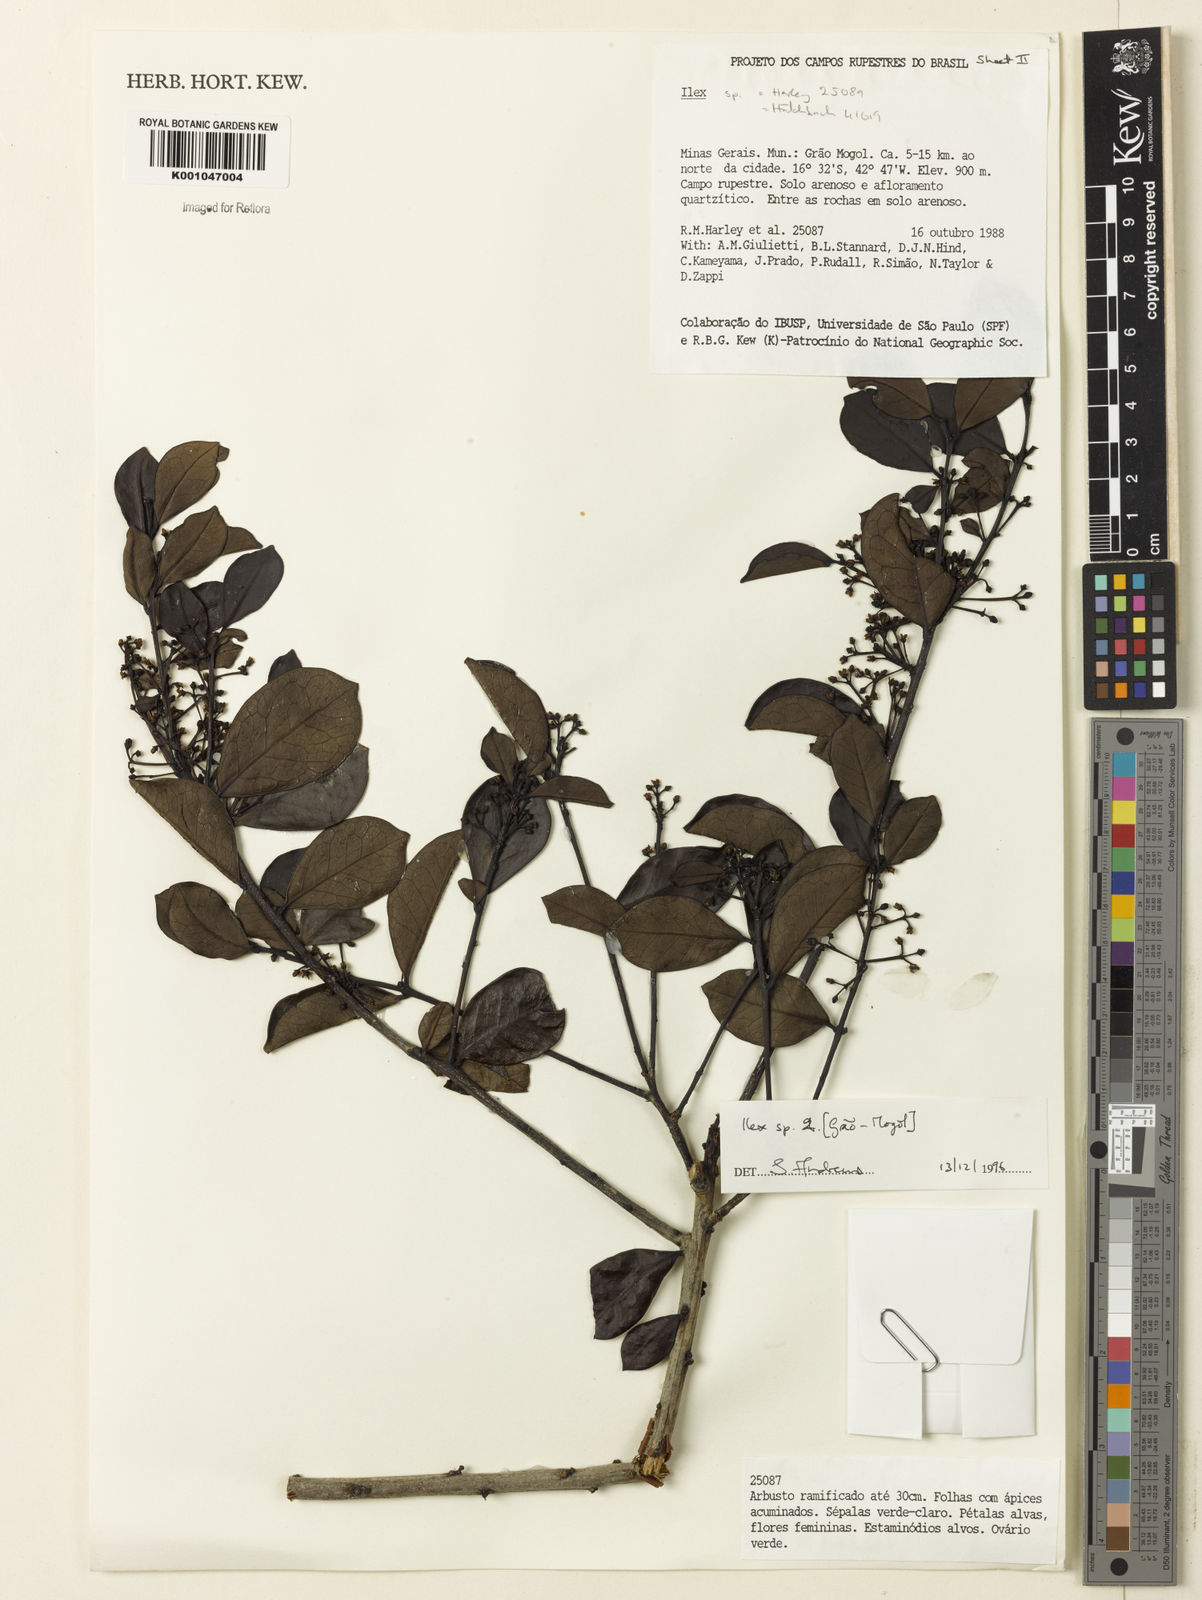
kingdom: Plantae
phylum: Tracheophyta
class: Magnoliopsida
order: Aquifoliales
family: Aquifoliaceae
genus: Ilex
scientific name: Ilex
